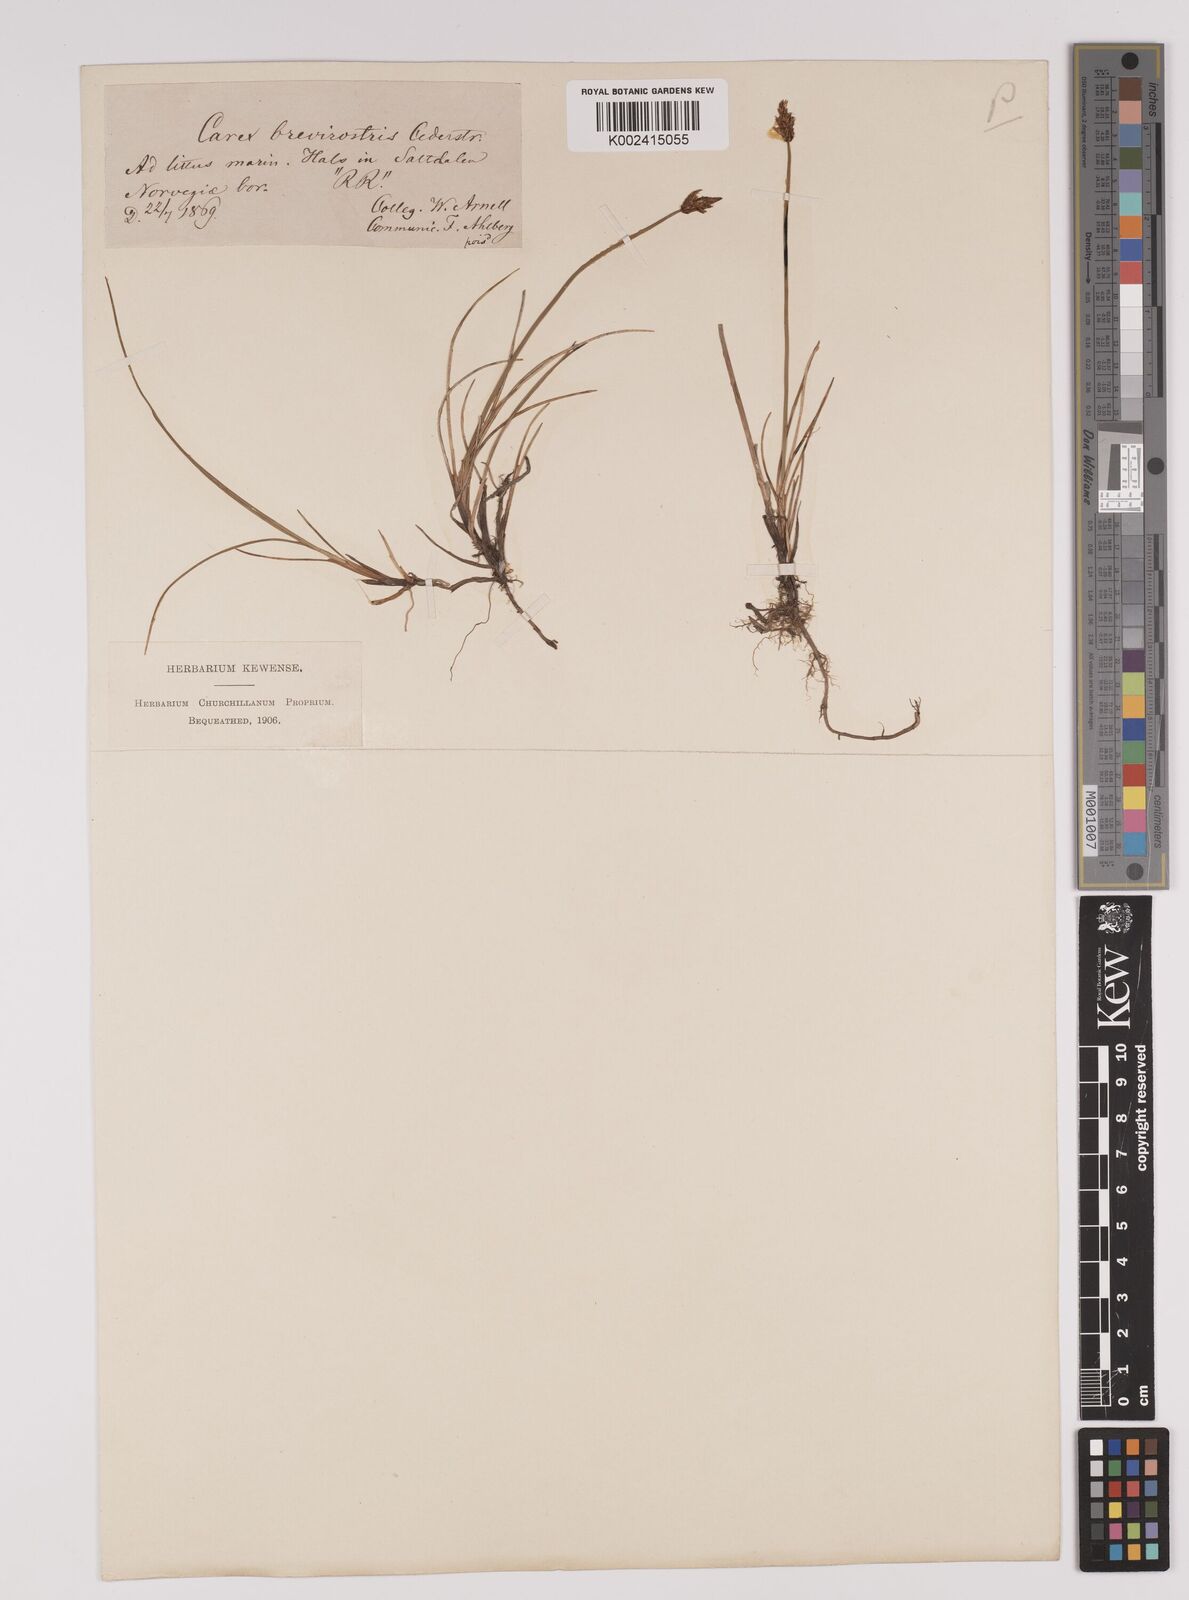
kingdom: Plantae
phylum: Tracheophyta
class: Liliopsida
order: Poales
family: Cyperaceae
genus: Carex
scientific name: Carex dioica
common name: Dioecious sedge
